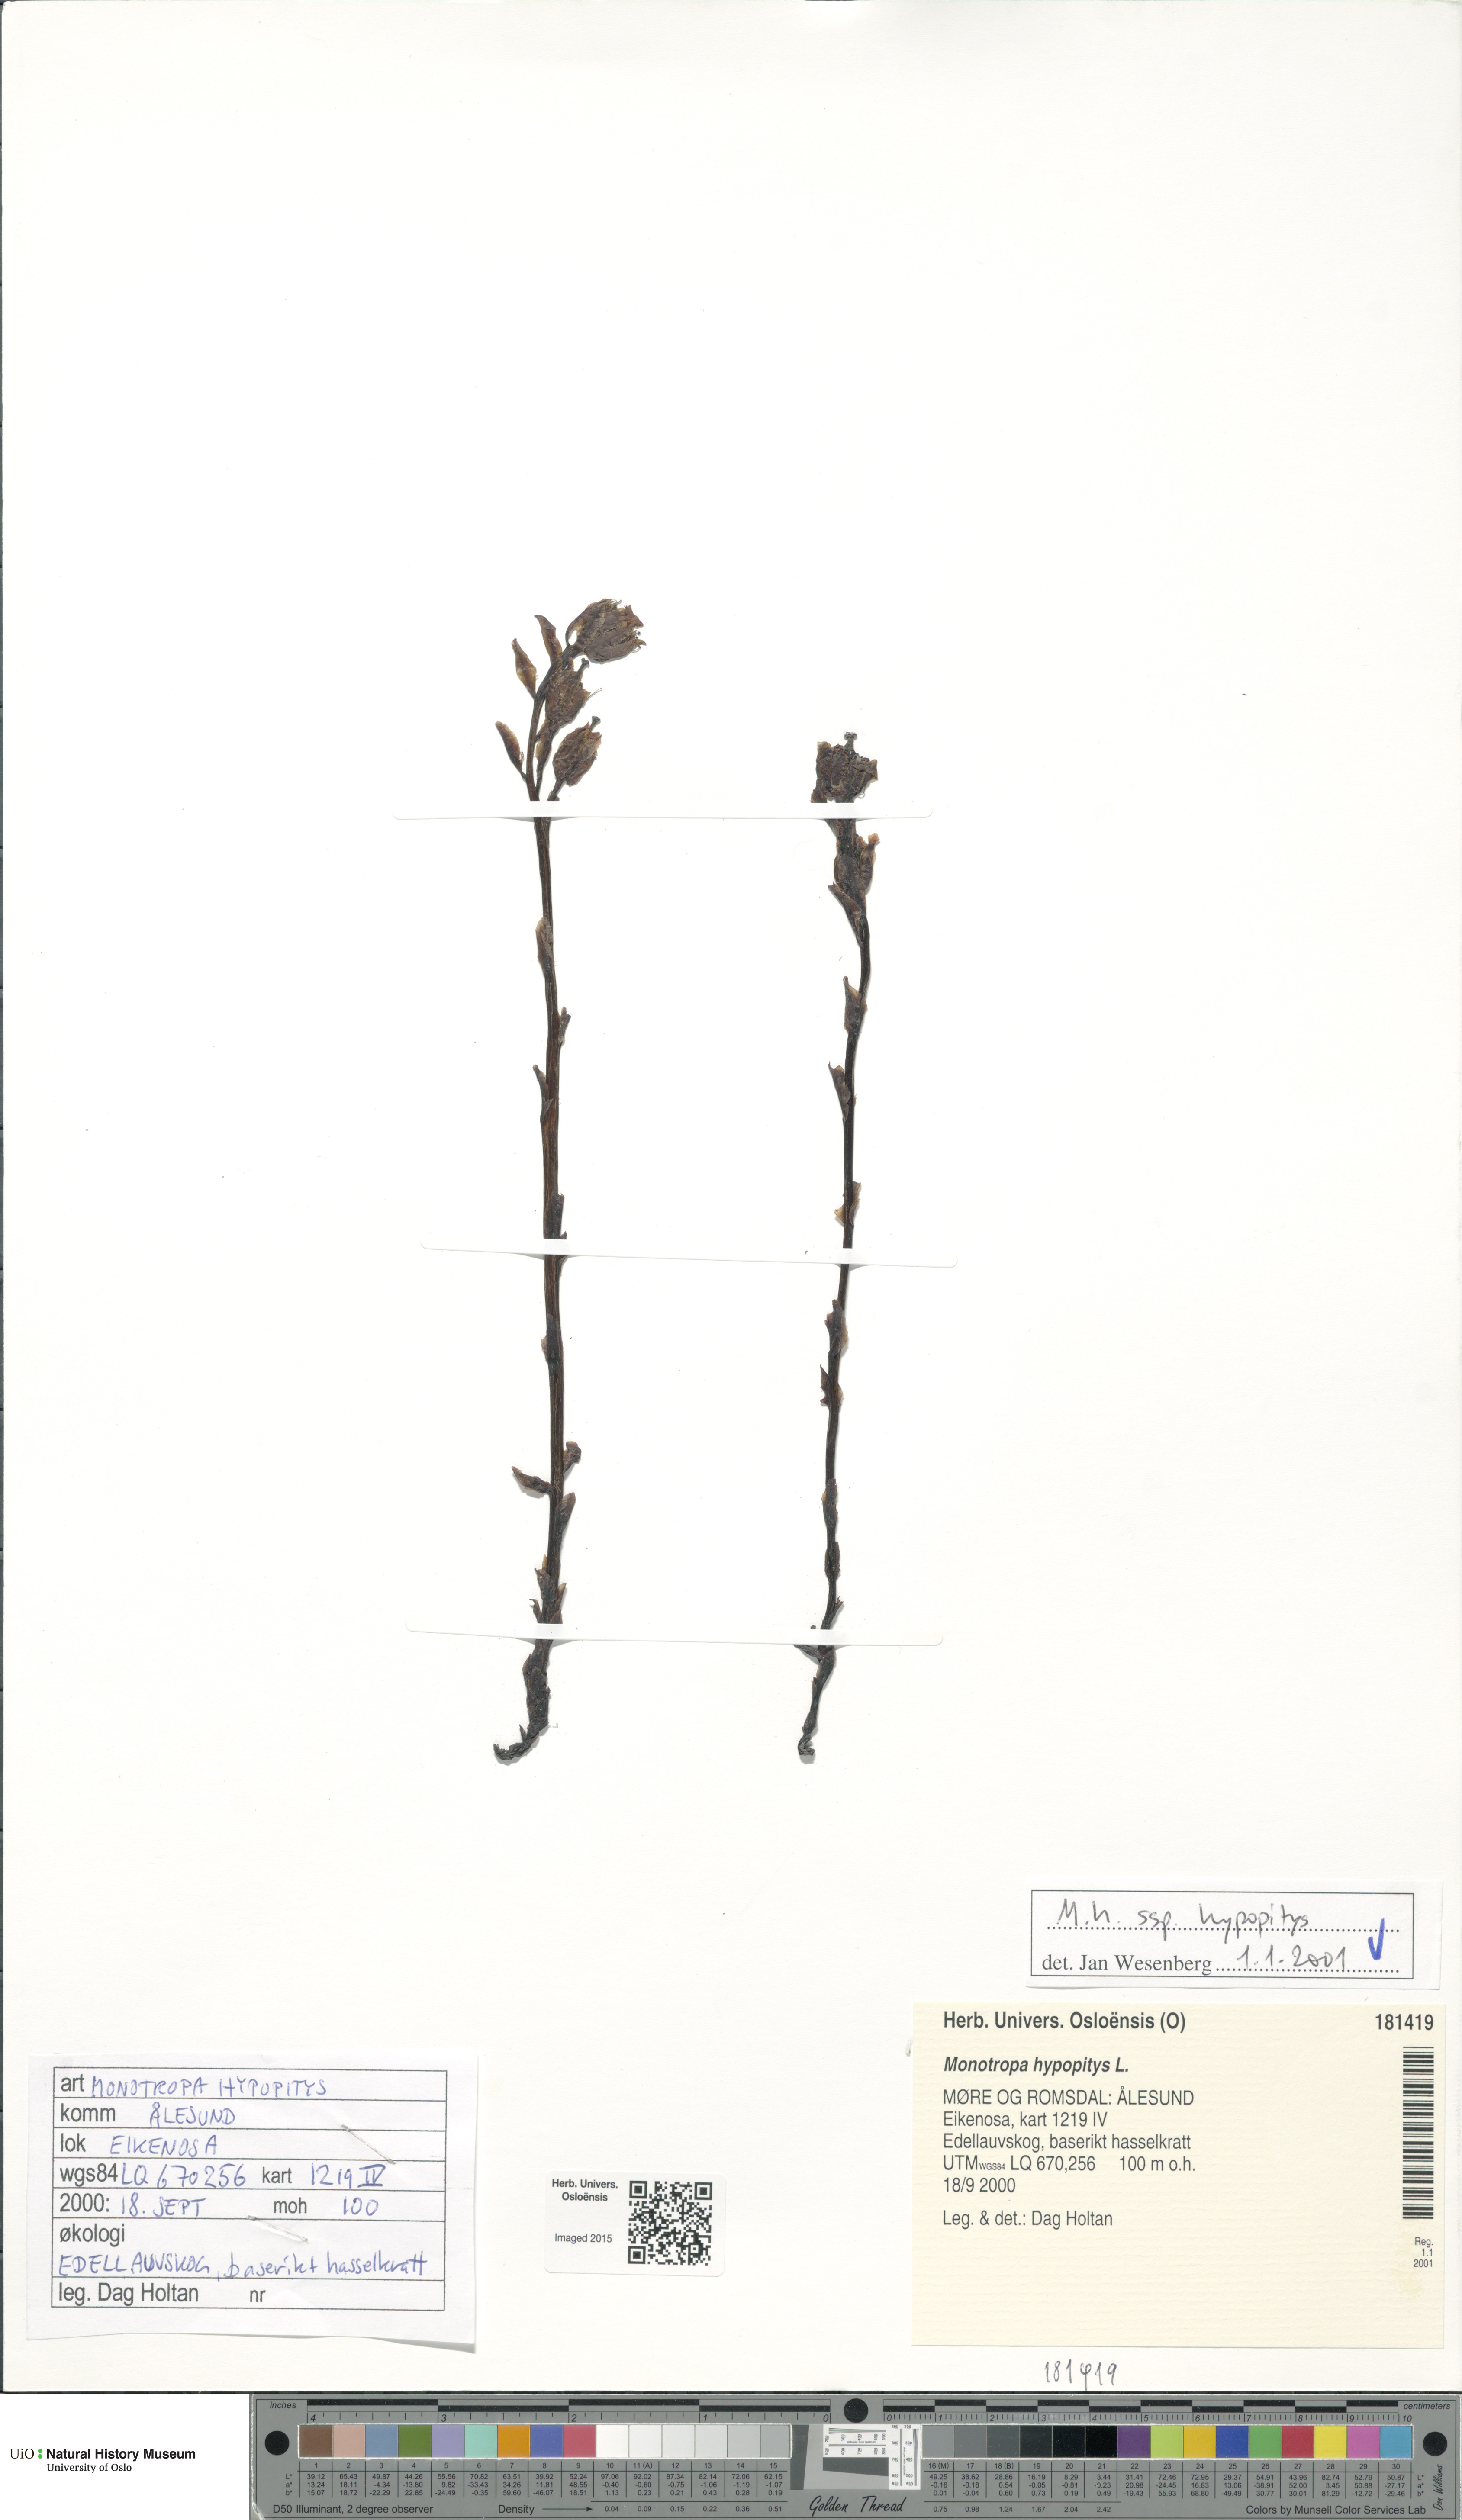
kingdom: Plantae
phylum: Tracheophyta
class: Magnoliopsida
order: Ericales
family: Ericaceae
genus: Hypopitys
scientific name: Hypopitys monotropa
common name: Yellow bird's-nest
